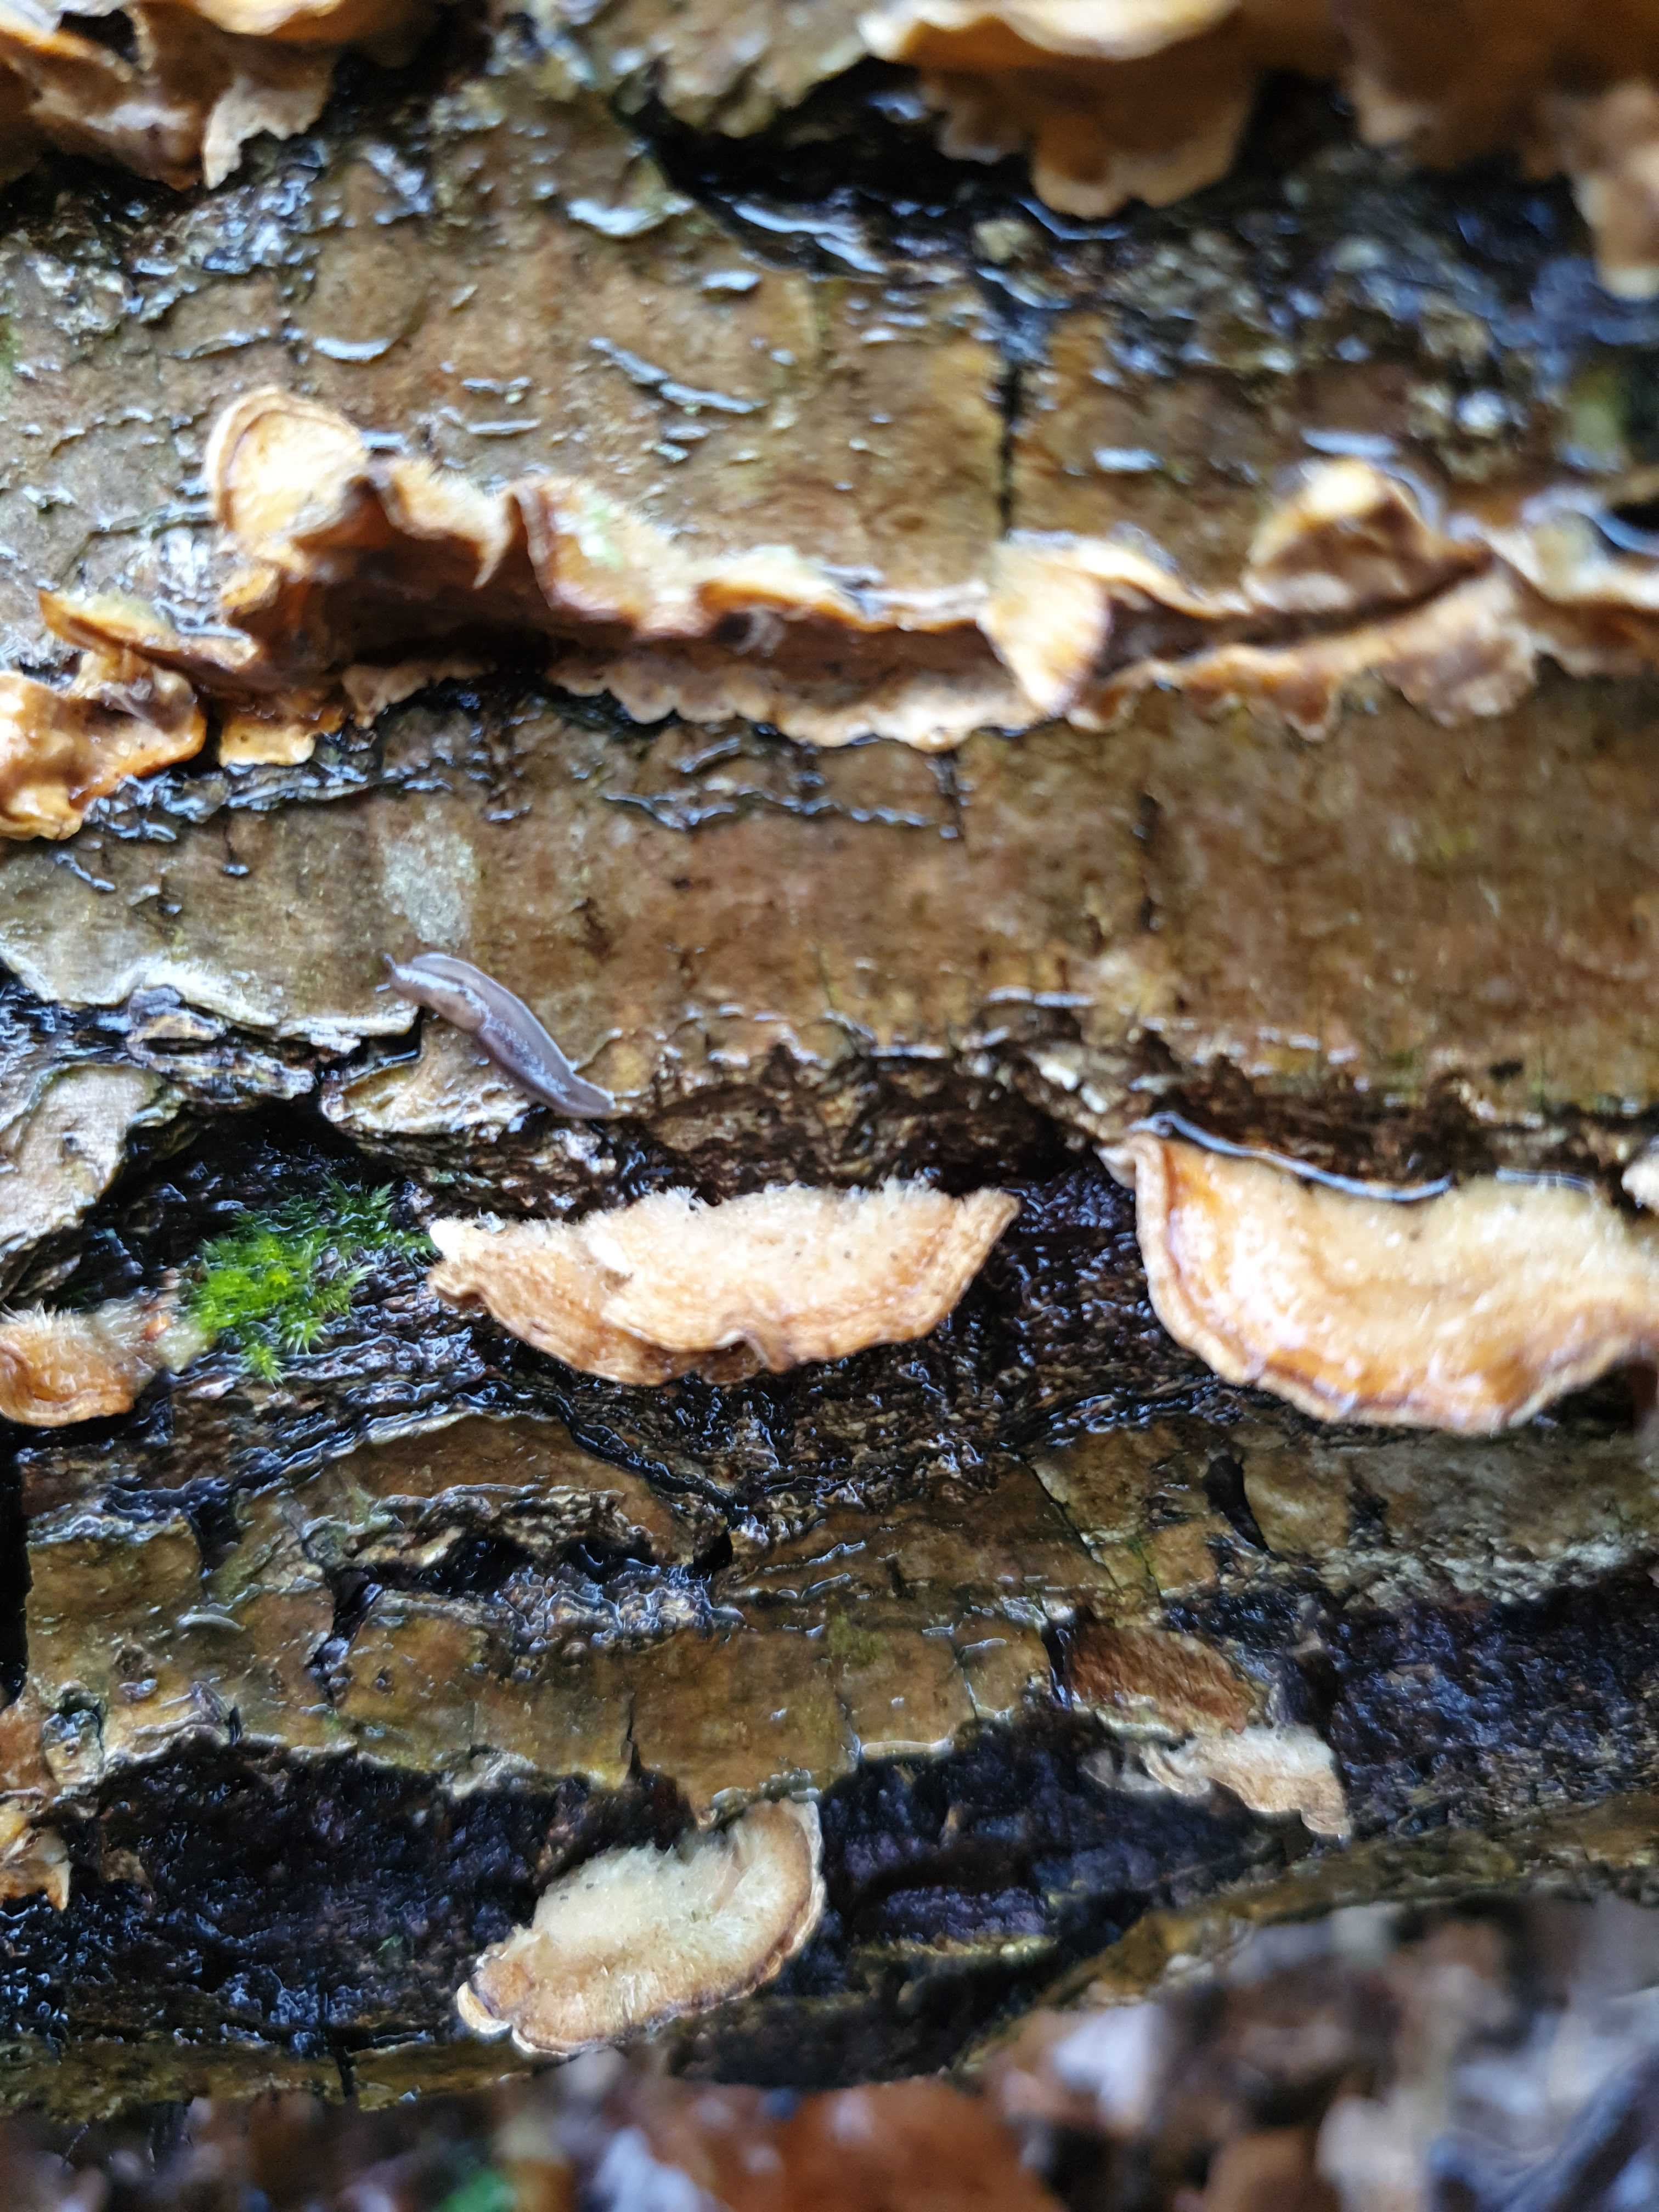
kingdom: Fungi
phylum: Basidiomycota
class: Agaricomycetes
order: Russulales
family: Stereaceae
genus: Stereum
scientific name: Stereum hirsutum
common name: håret lædersvamp
